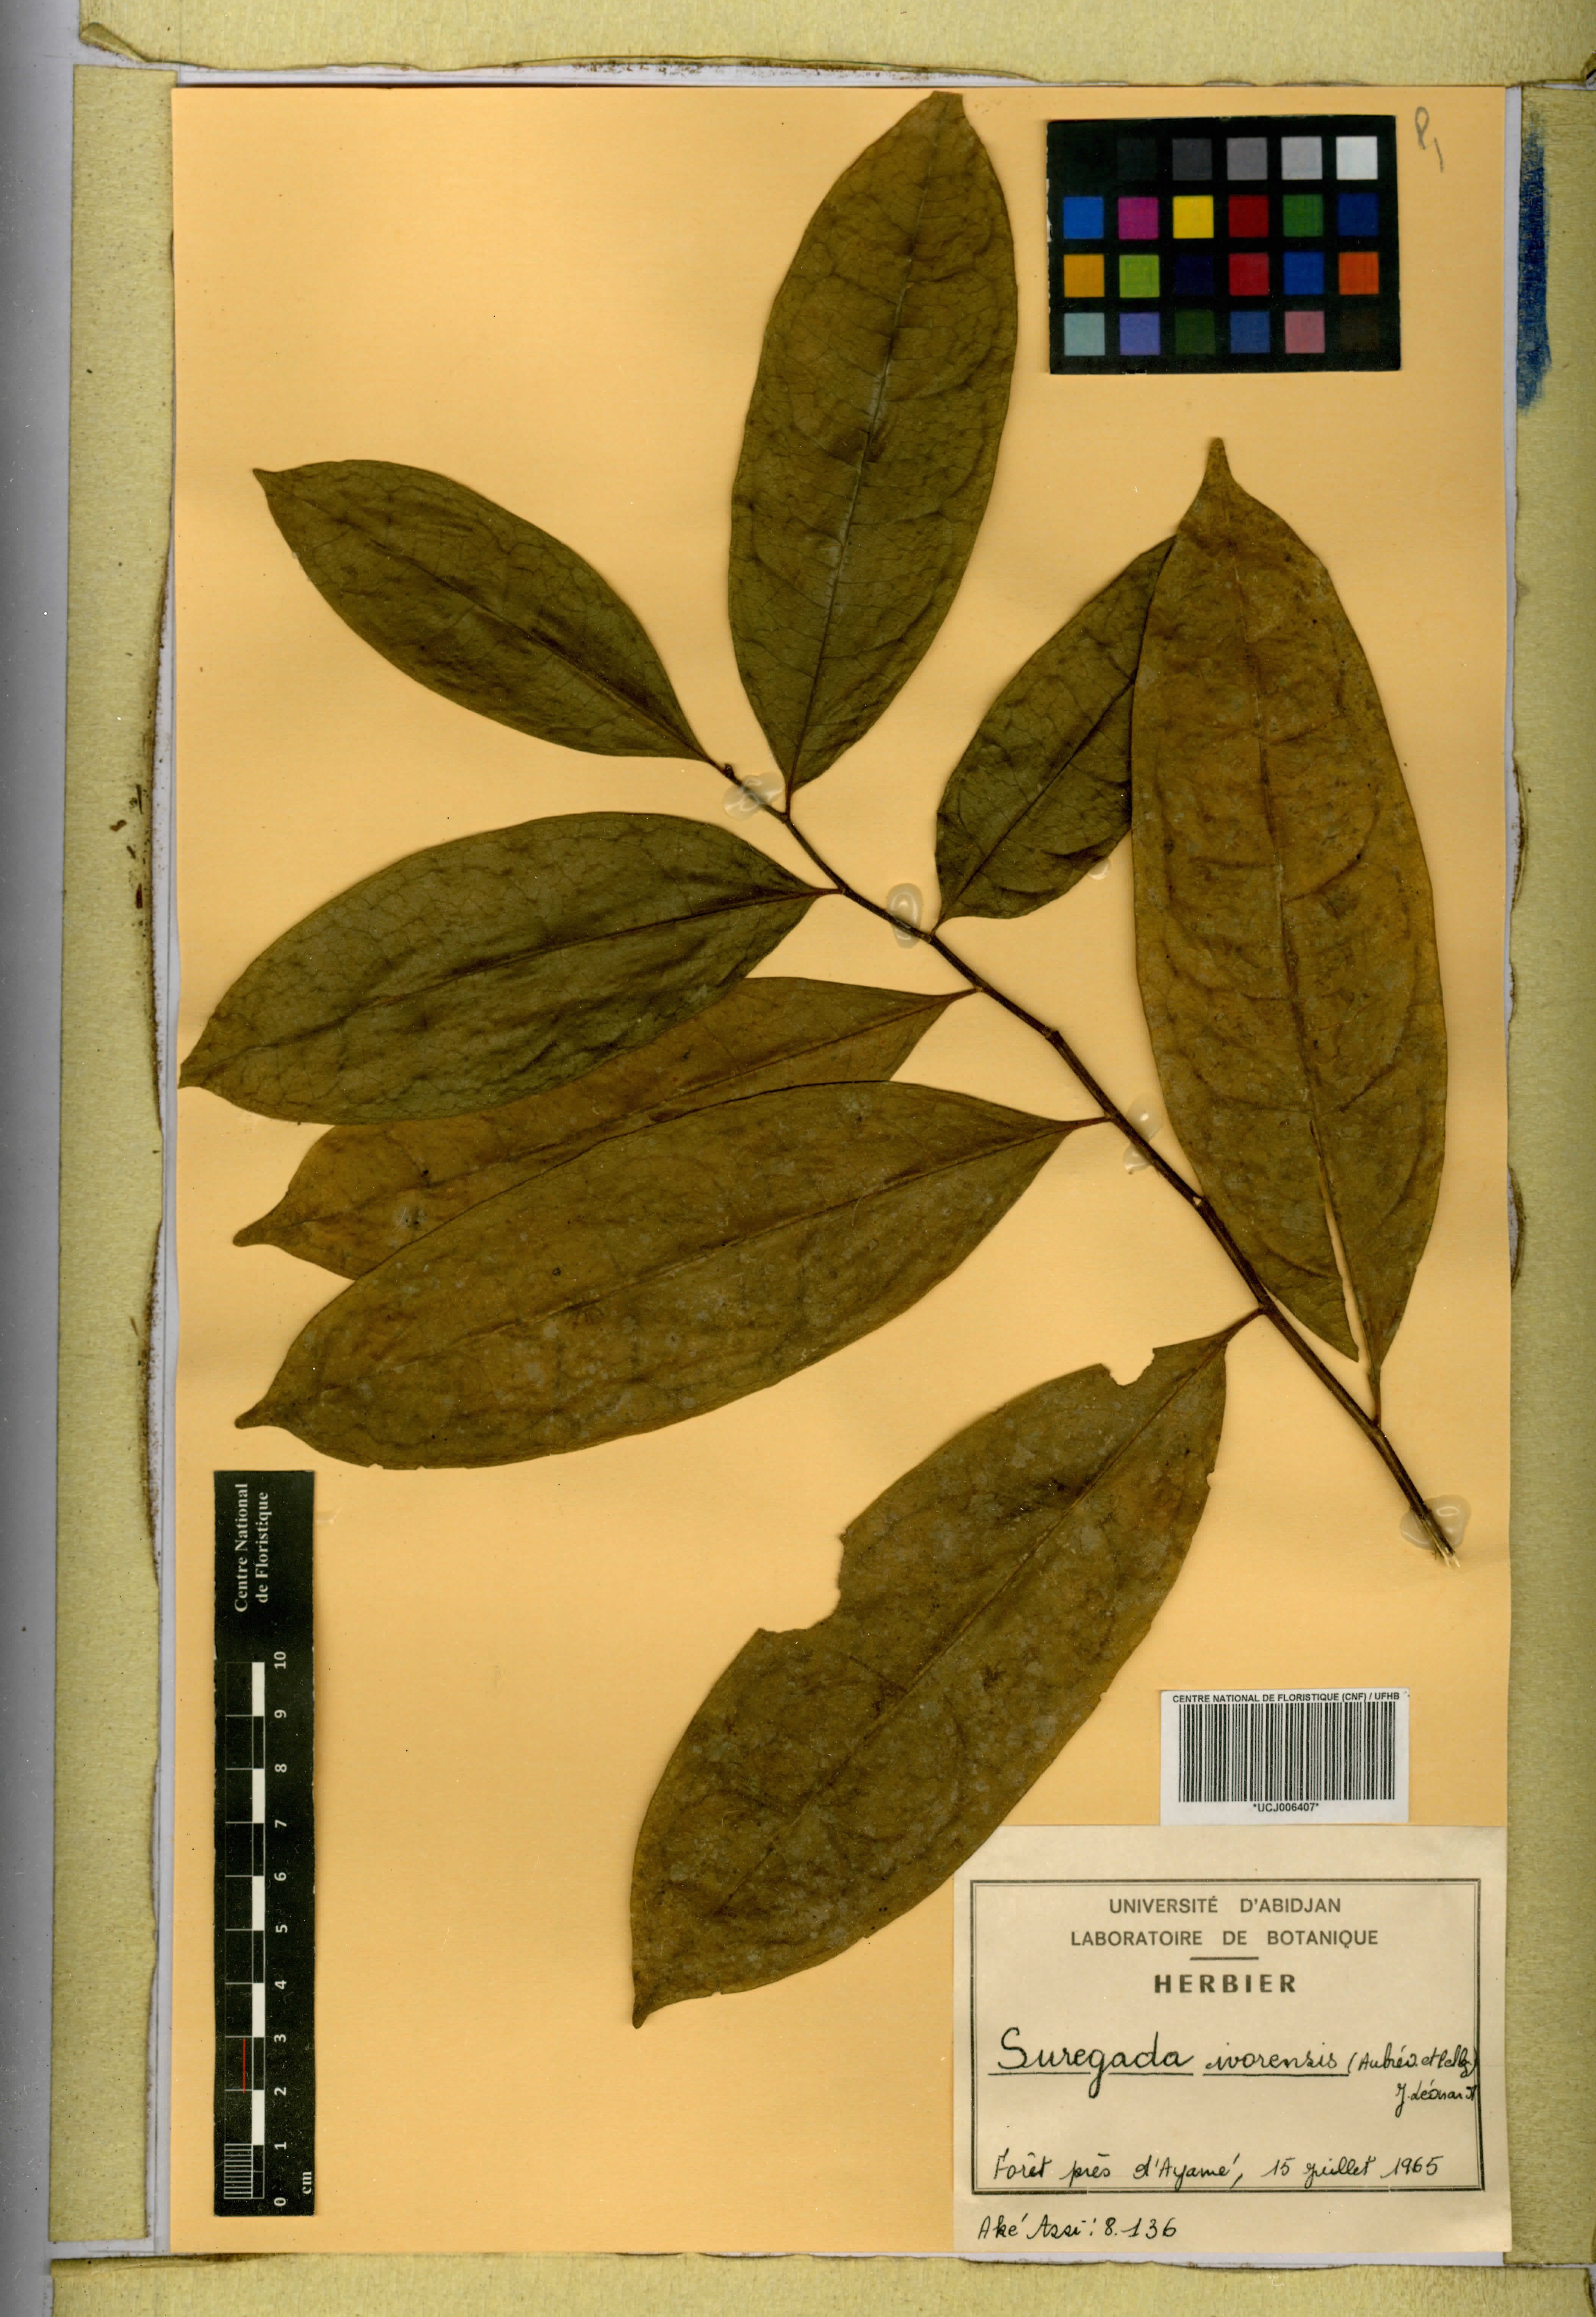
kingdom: Plantae
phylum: Tracheophyta
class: Magnoliopsida
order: Malpighiales
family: Euphorbiaceae
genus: Suregada
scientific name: Suregada ivorensis
